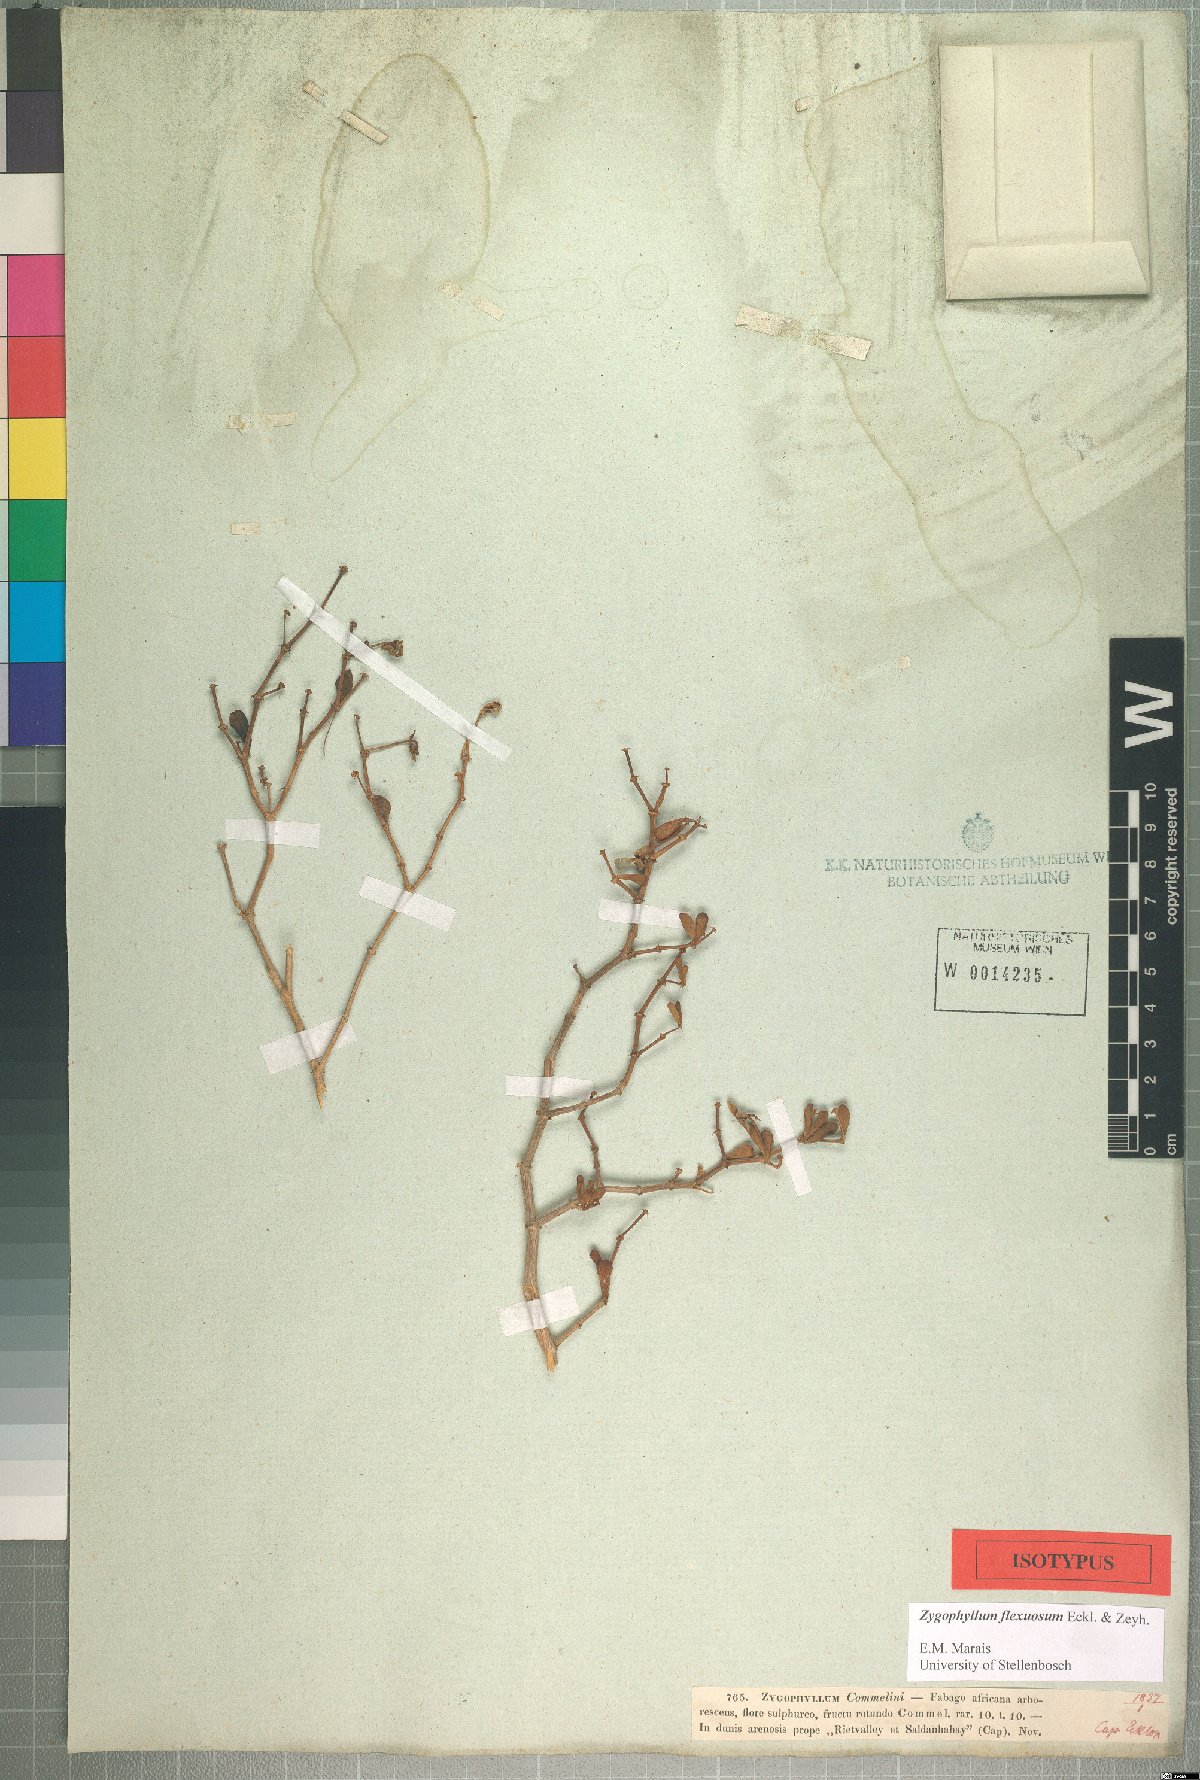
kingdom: Plantae
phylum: Tracheophyta
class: Magnoliopsida
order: Zygophyllales
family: Zygophyllaceae
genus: Roepera
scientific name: Roepera flexuosa
